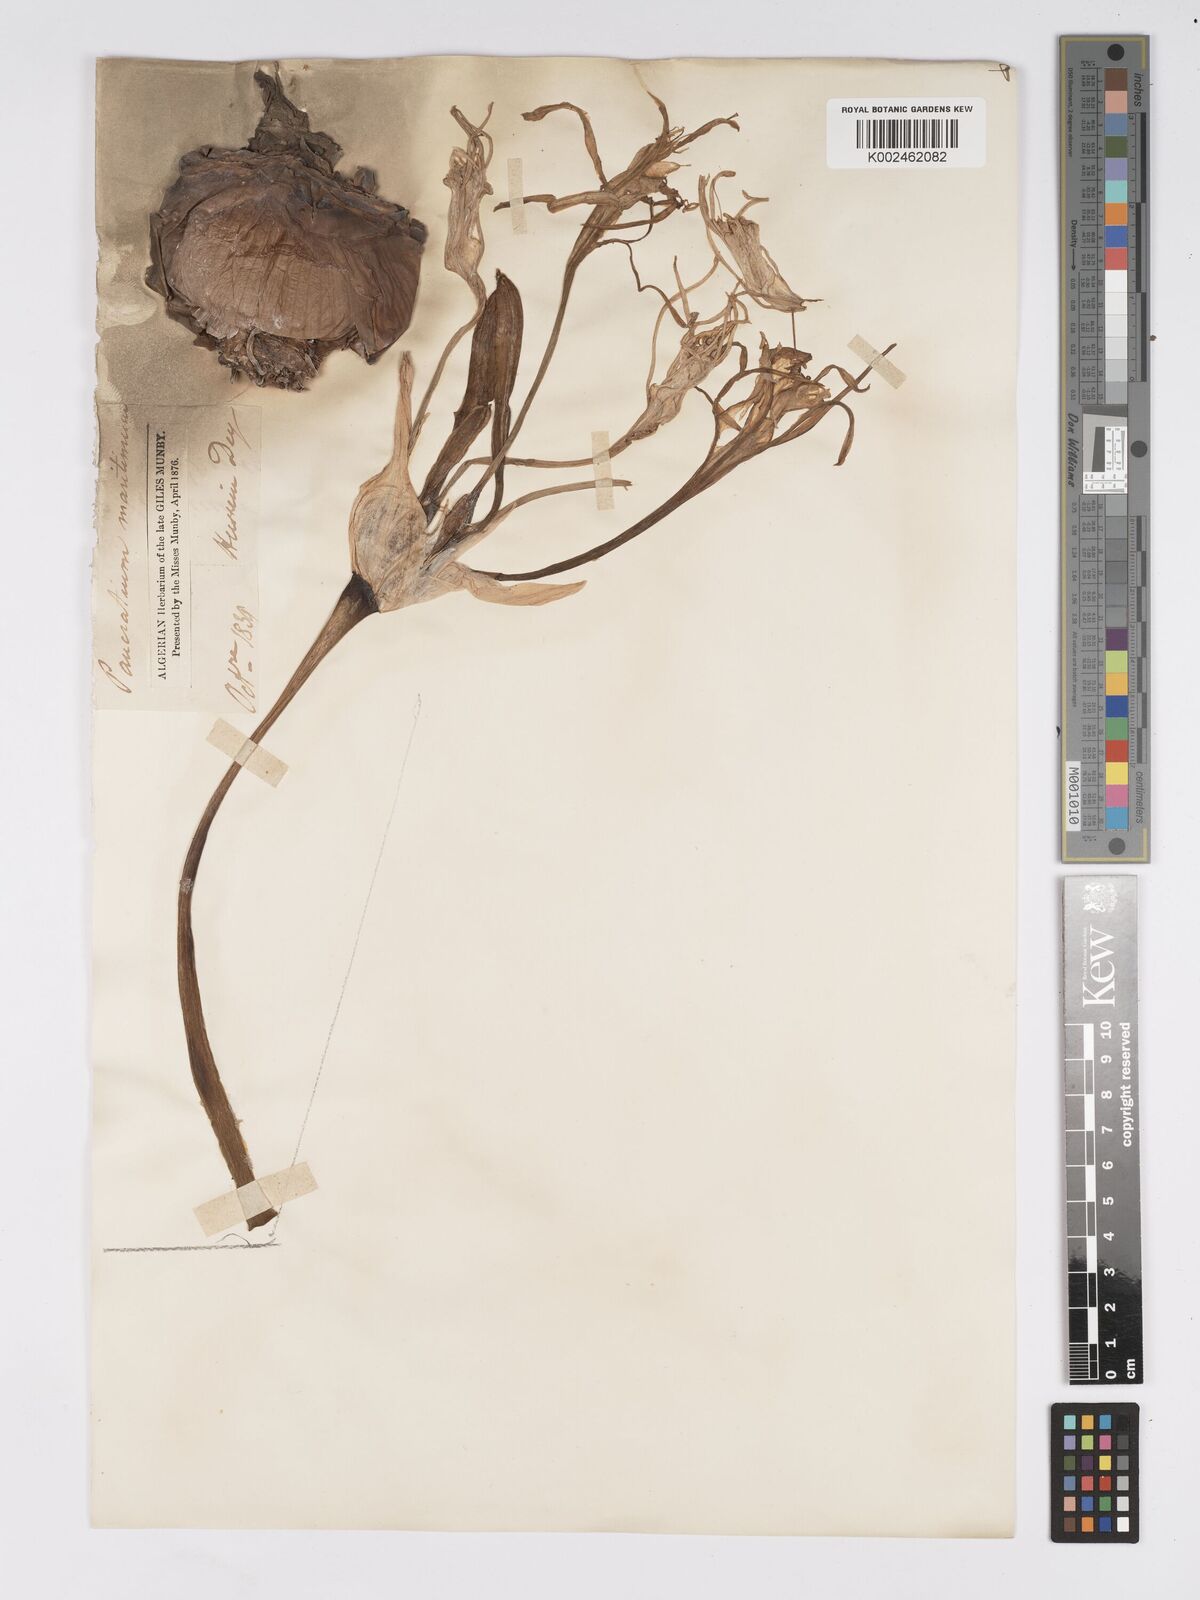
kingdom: Plantae
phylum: Tracheophyta
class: Liliopsida
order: Asparagales
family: Amaryllidaceae
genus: Pancratium
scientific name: Pancratium maritimum
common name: Sea-daffodil
